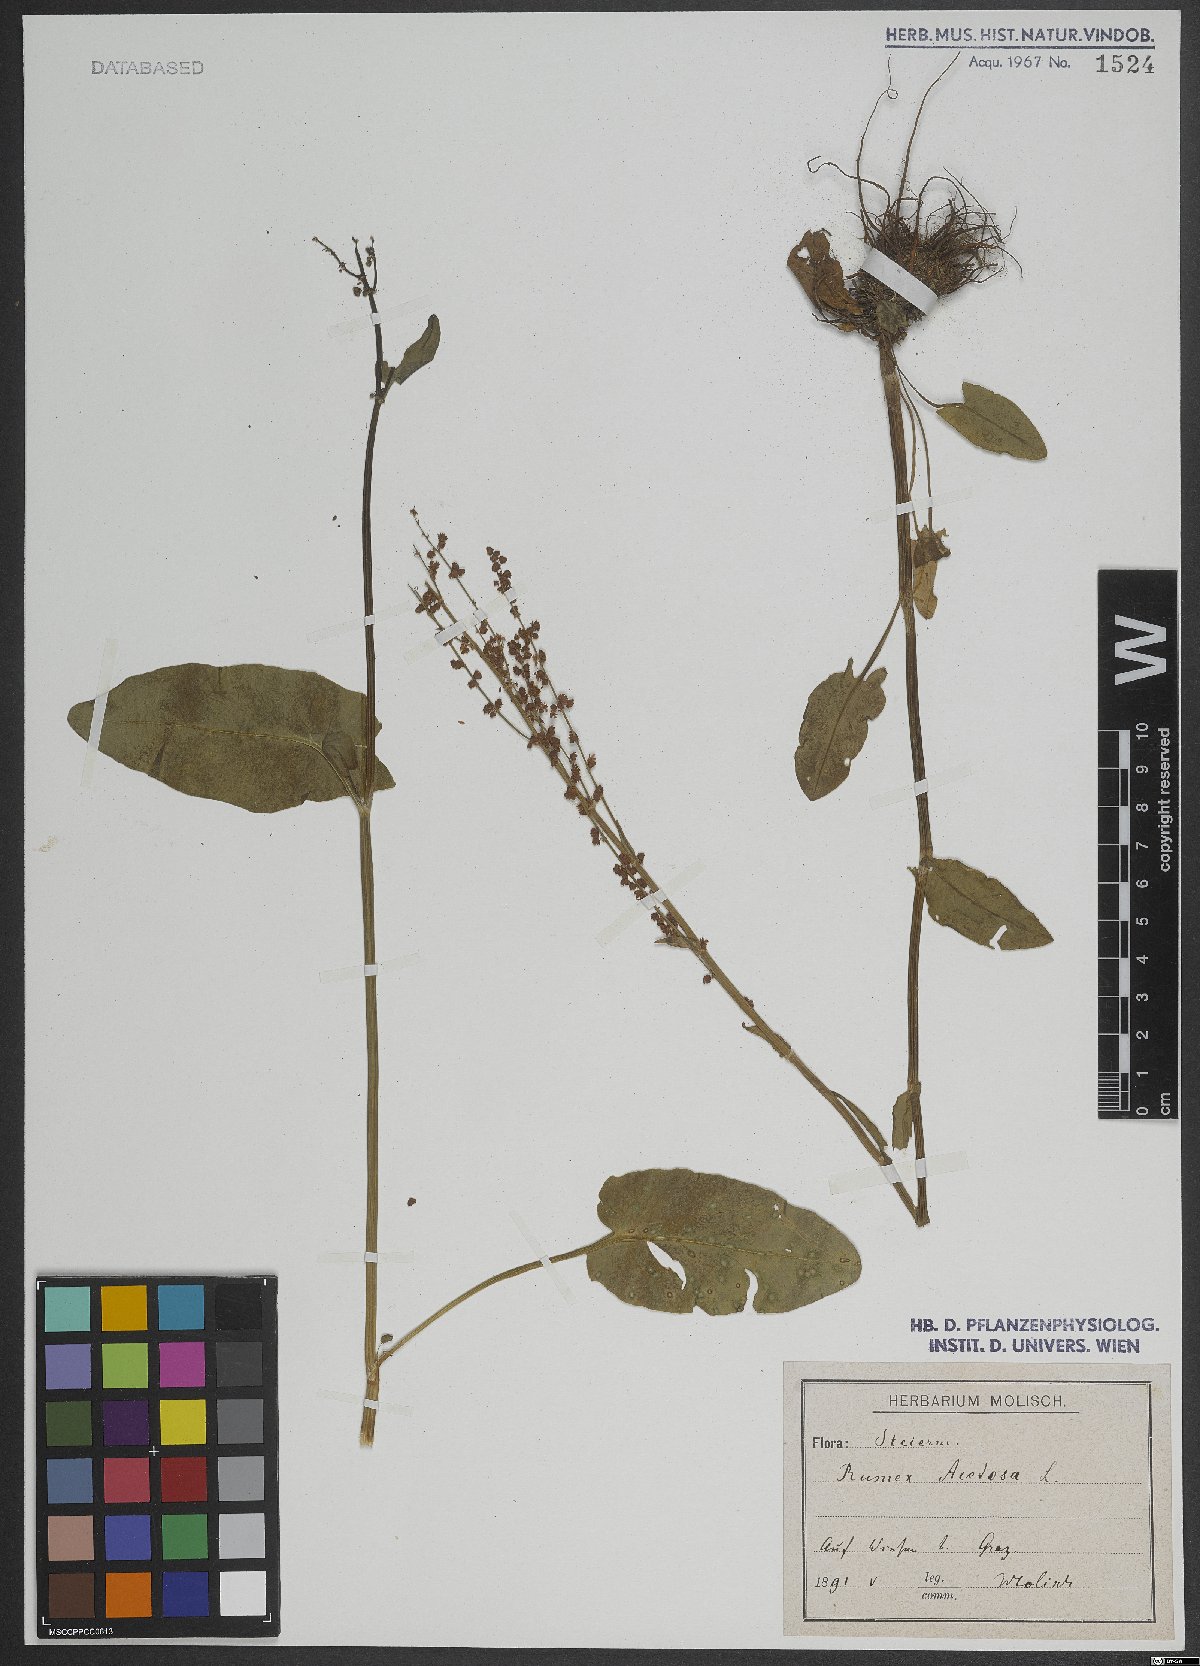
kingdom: Plantae
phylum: Tracheophyta
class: Magnoliopsida
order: Caryophyllales
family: Polygonaceae
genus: Rumex
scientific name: Rumex acetosa
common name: Garden sorrel
